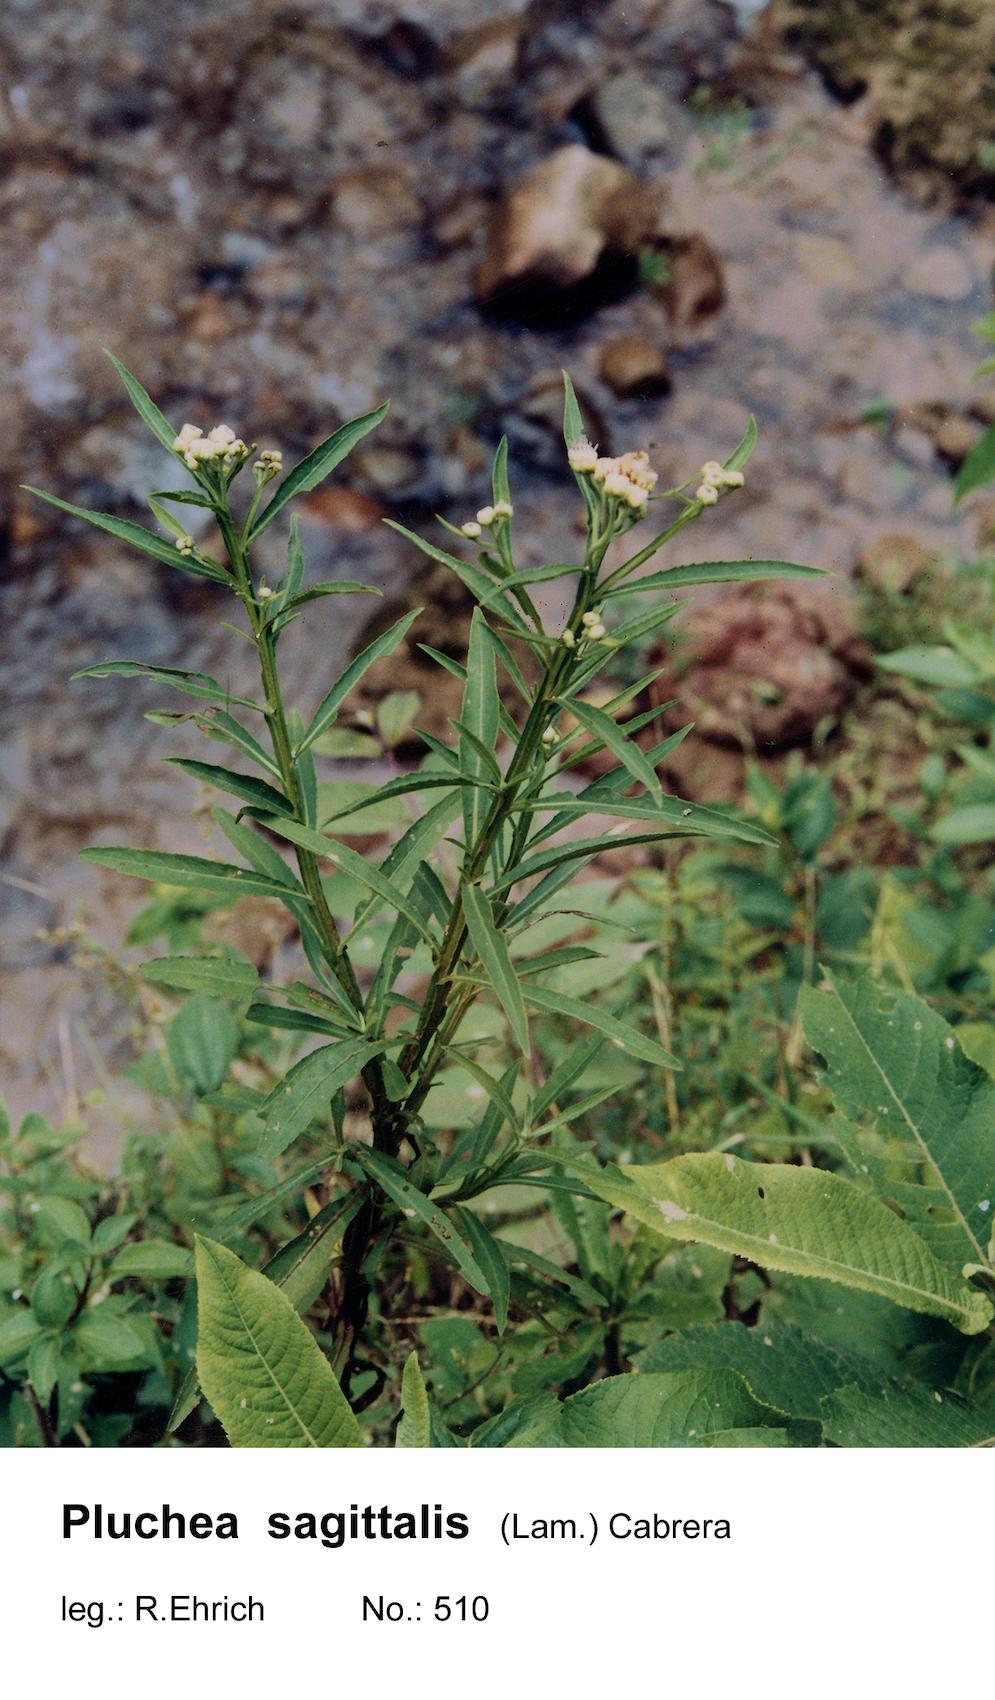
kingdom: Plantae
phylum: Tracheophyta
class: Magnoliopsida
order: Asterales
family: Asteraceae
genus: Pluchea
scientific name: Pluchea sagittalis
